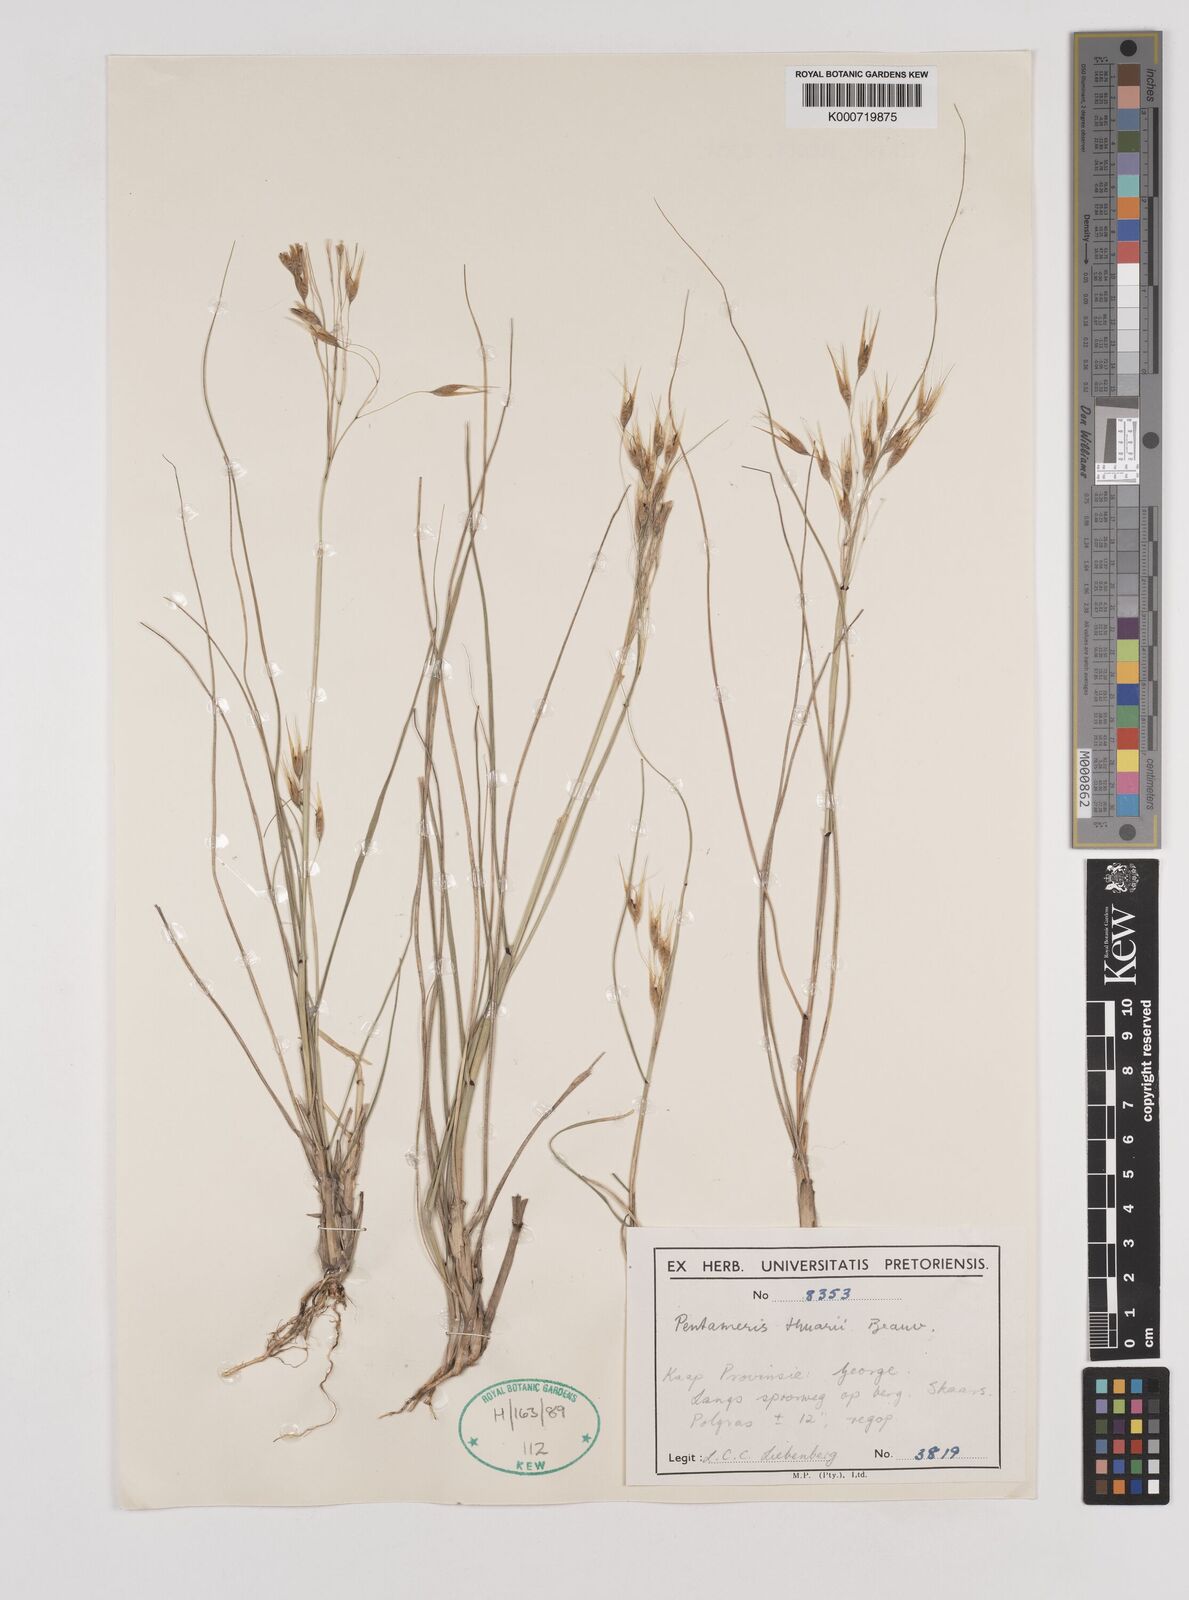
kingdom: Plantae
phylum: Tracheophyta
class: Liliopsida
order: Poales
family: Poaceae
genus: Pentameris
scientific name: Pentameris thuarii
